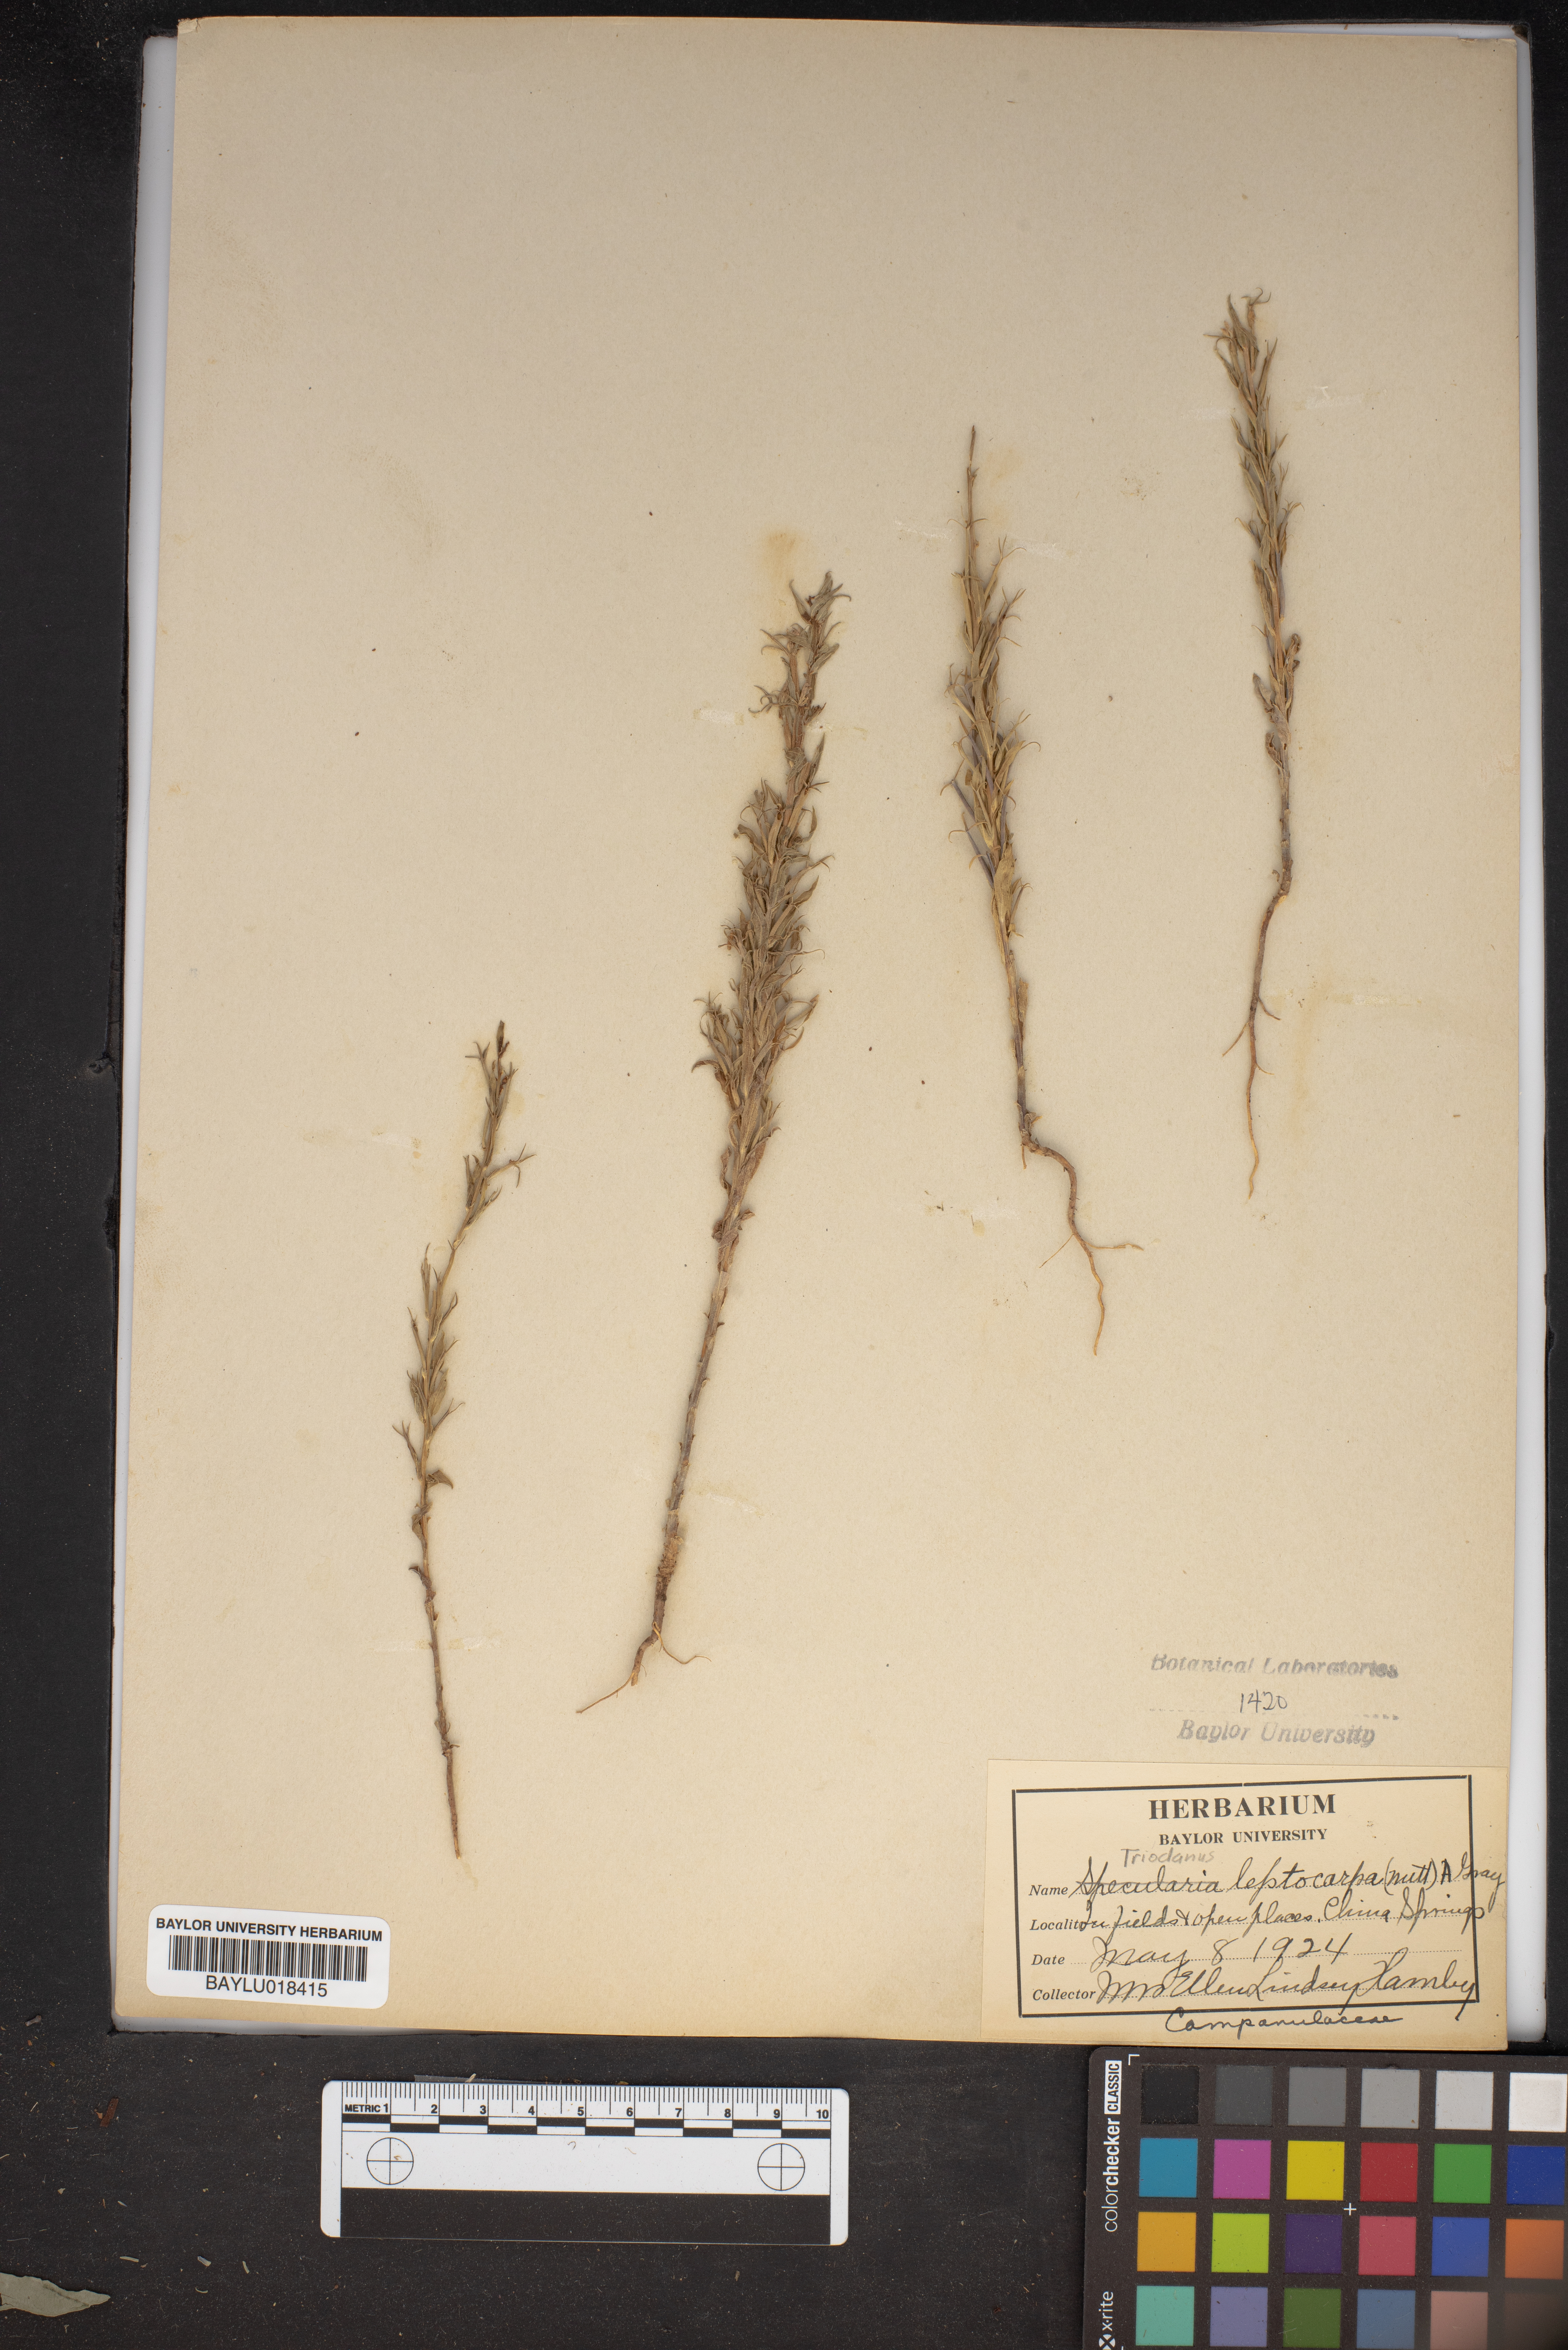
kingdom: Plantae
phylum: Tracheophyta
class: Magnoliopsida
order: Asterales
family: Campanulaceae
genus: Triodanis
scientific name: Triodanis leptocarpa
